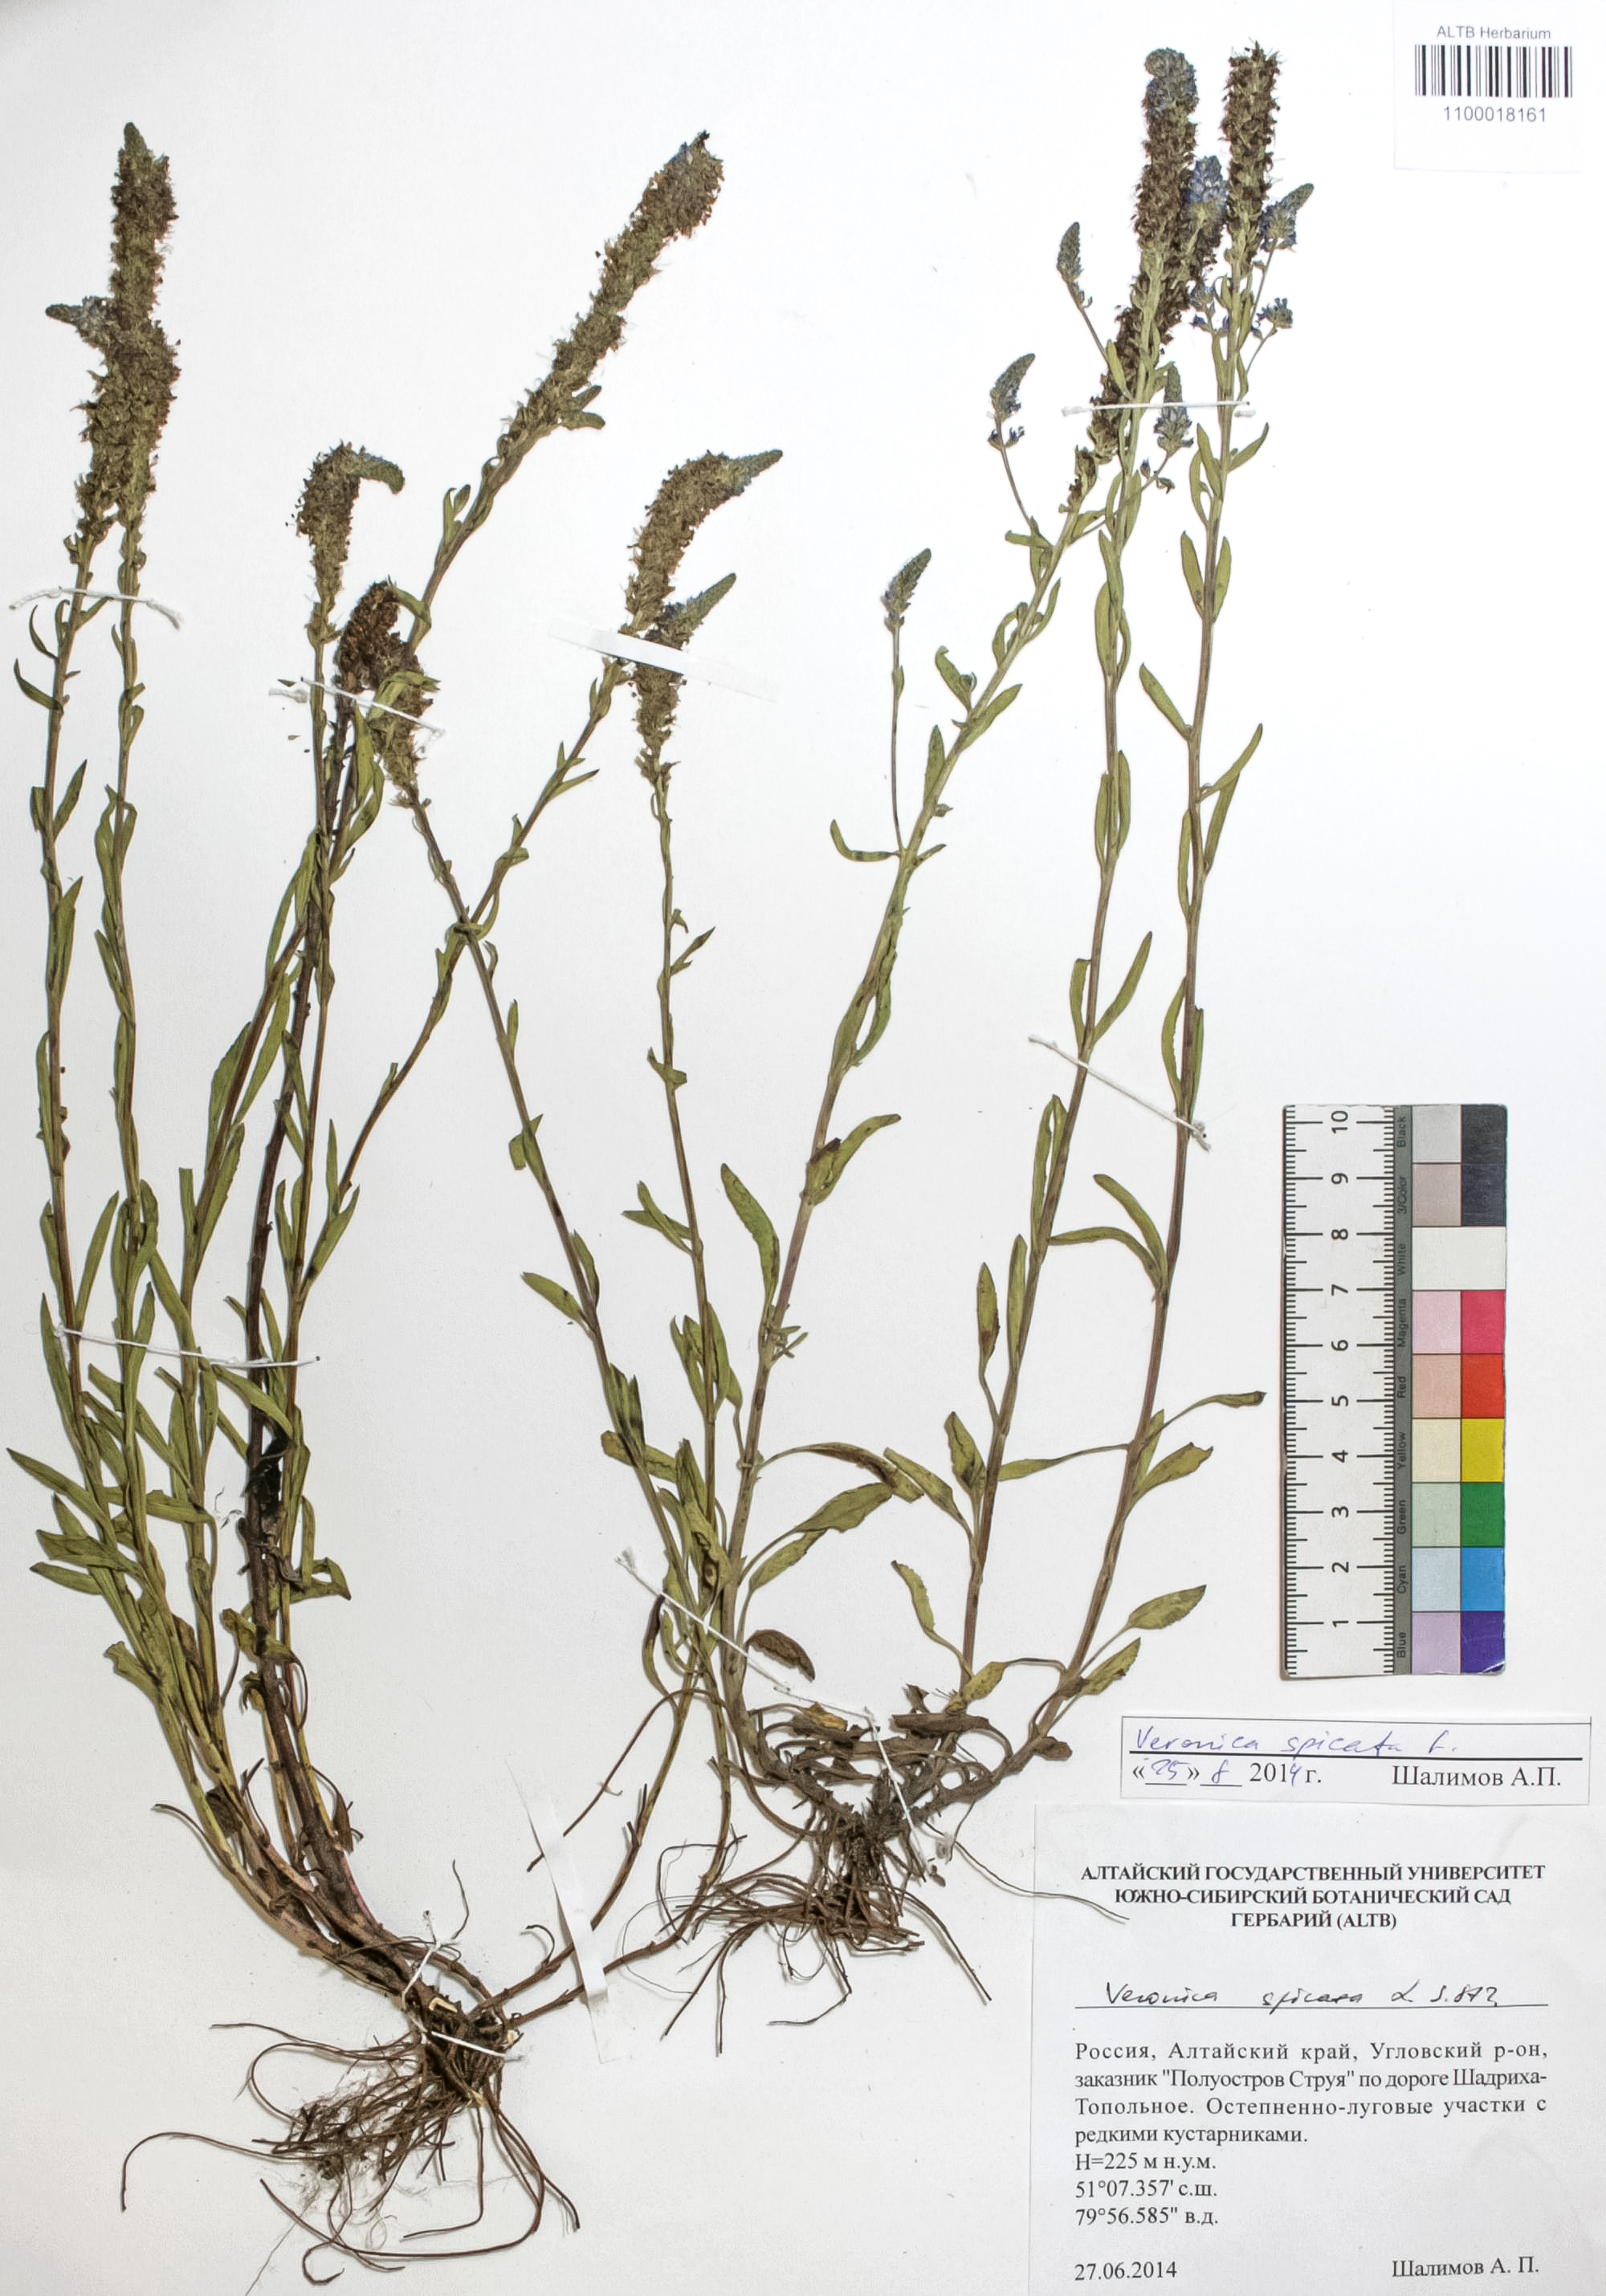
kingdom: Plantae
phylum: Tracheophyta
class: Magnoliopsida
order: Lamiales
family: Plantaginaceae
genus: Veronica
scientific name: Veronica spicata
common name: Spiked speedwell
